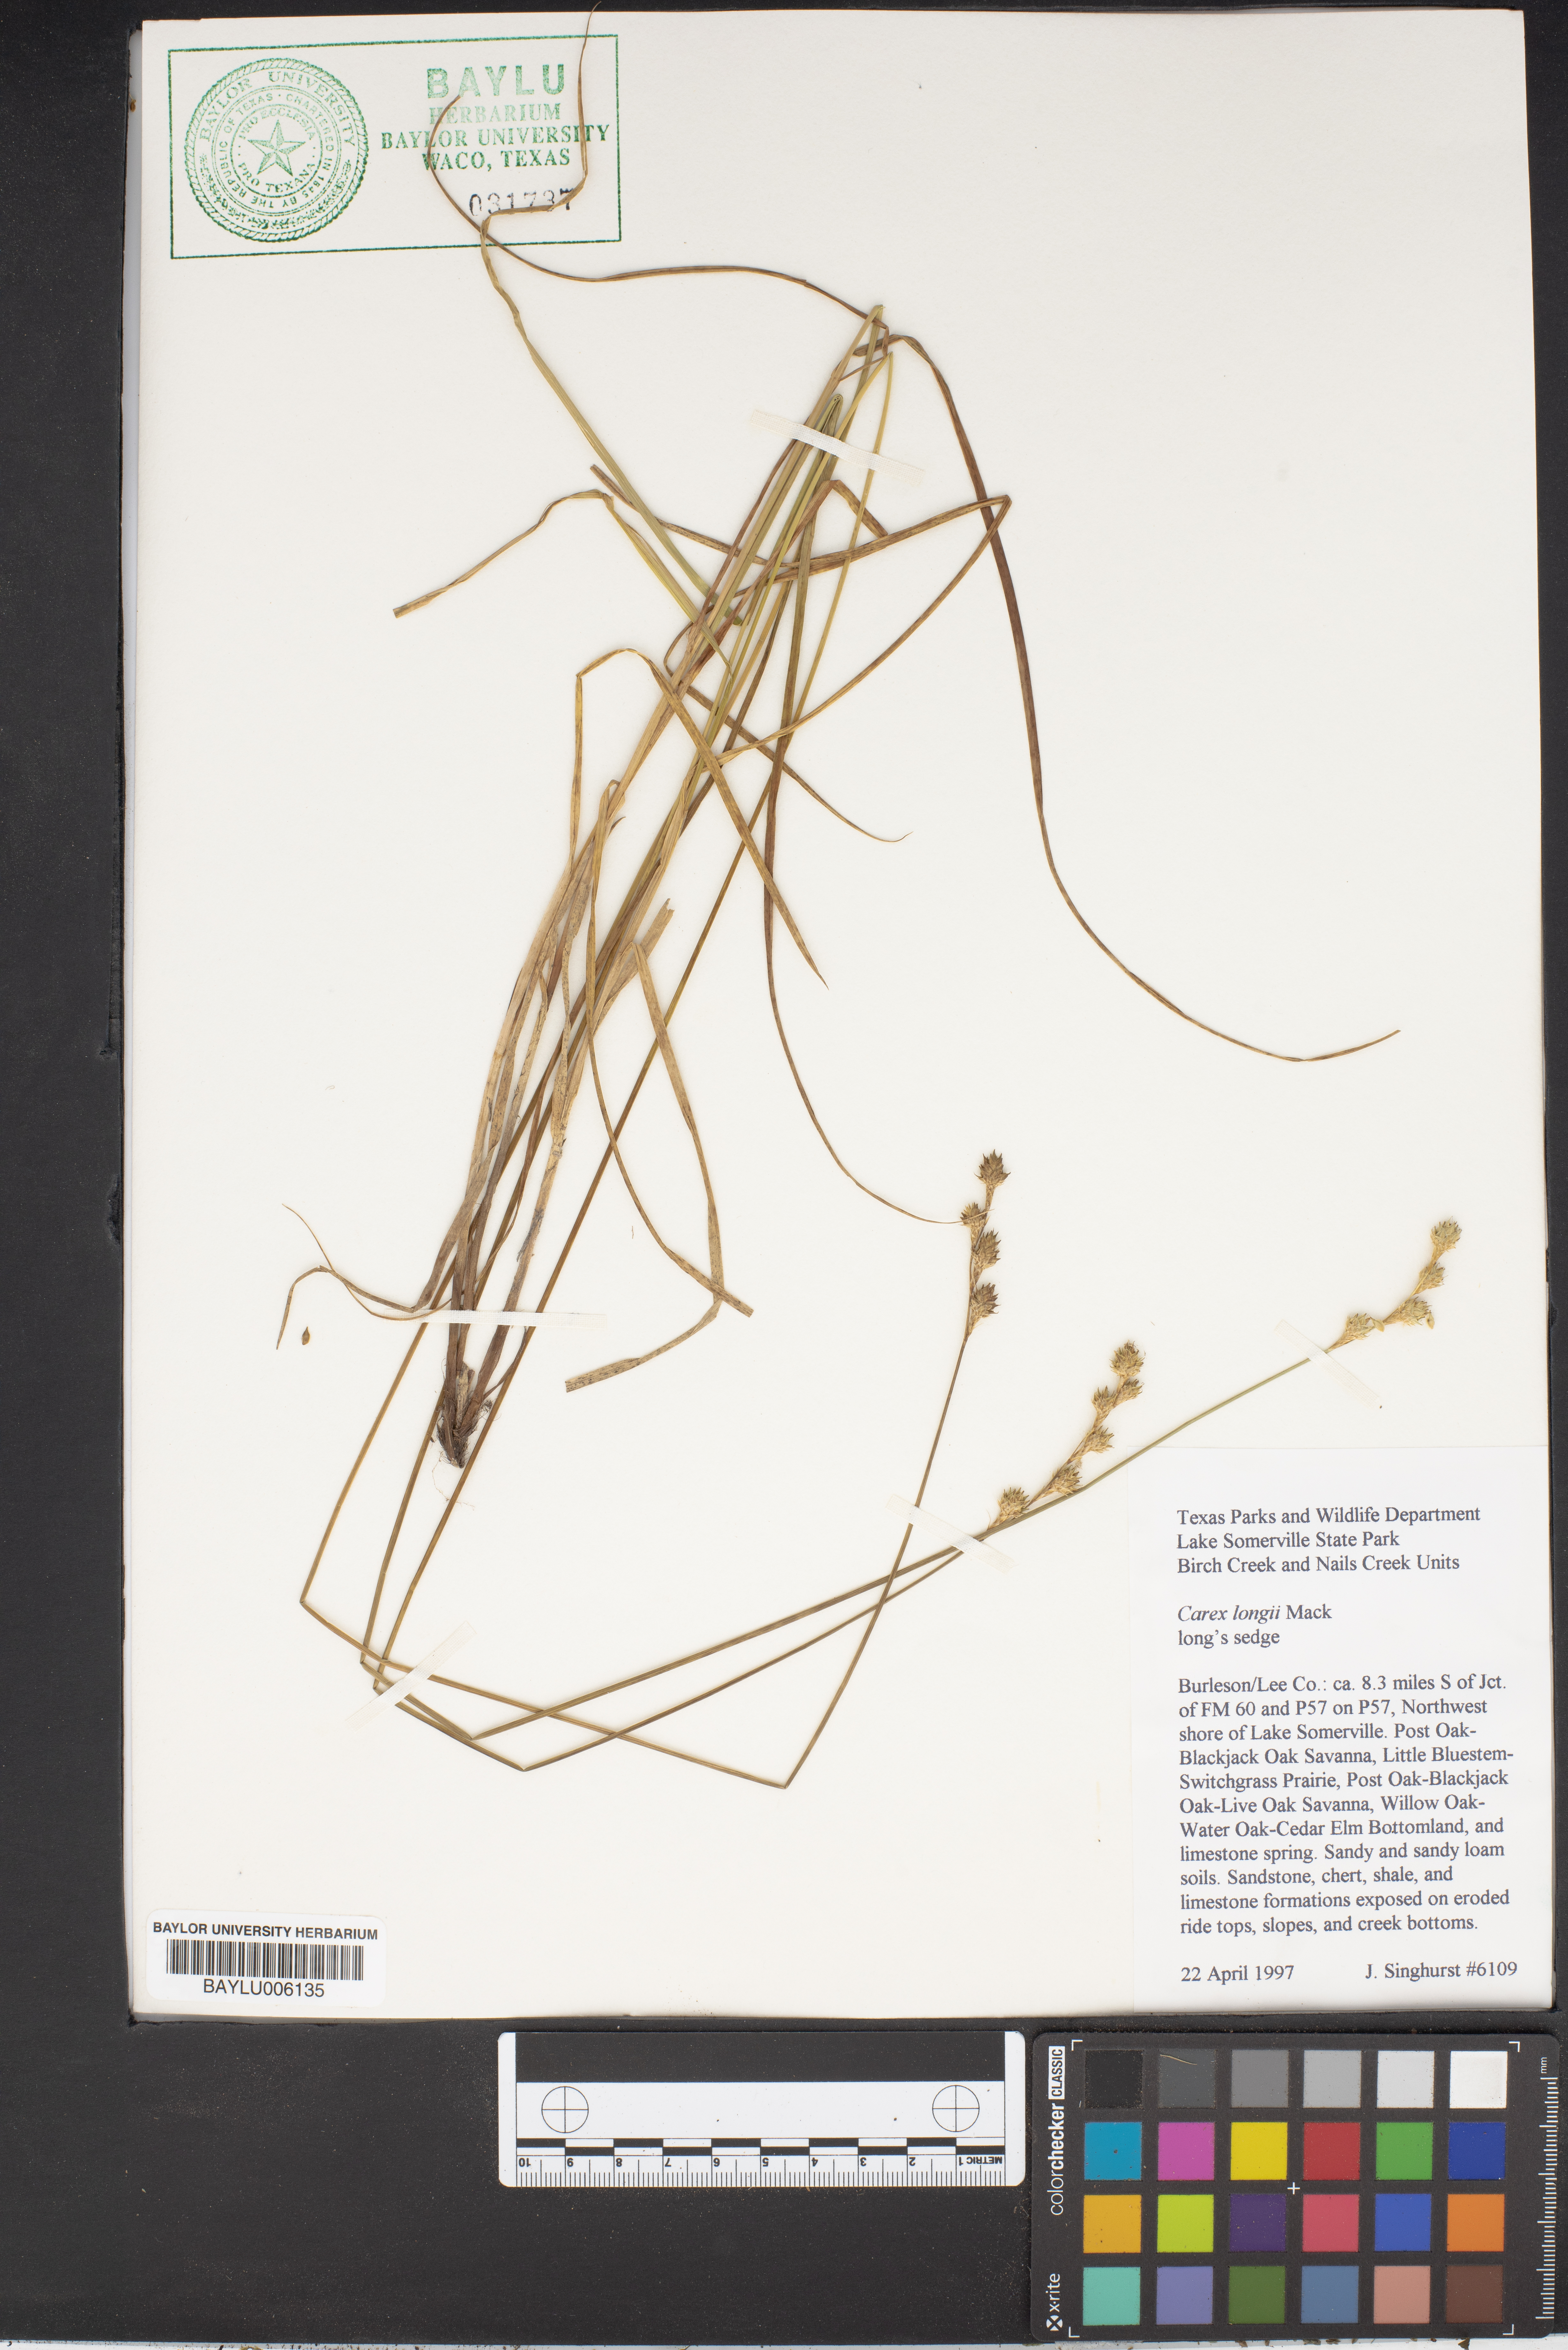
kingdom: Plantae
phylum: Tracheophyta
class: Liliopsida
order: Poales
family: Cyperaceae
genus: Carex
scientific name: Carex longii
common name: Long's sedge
